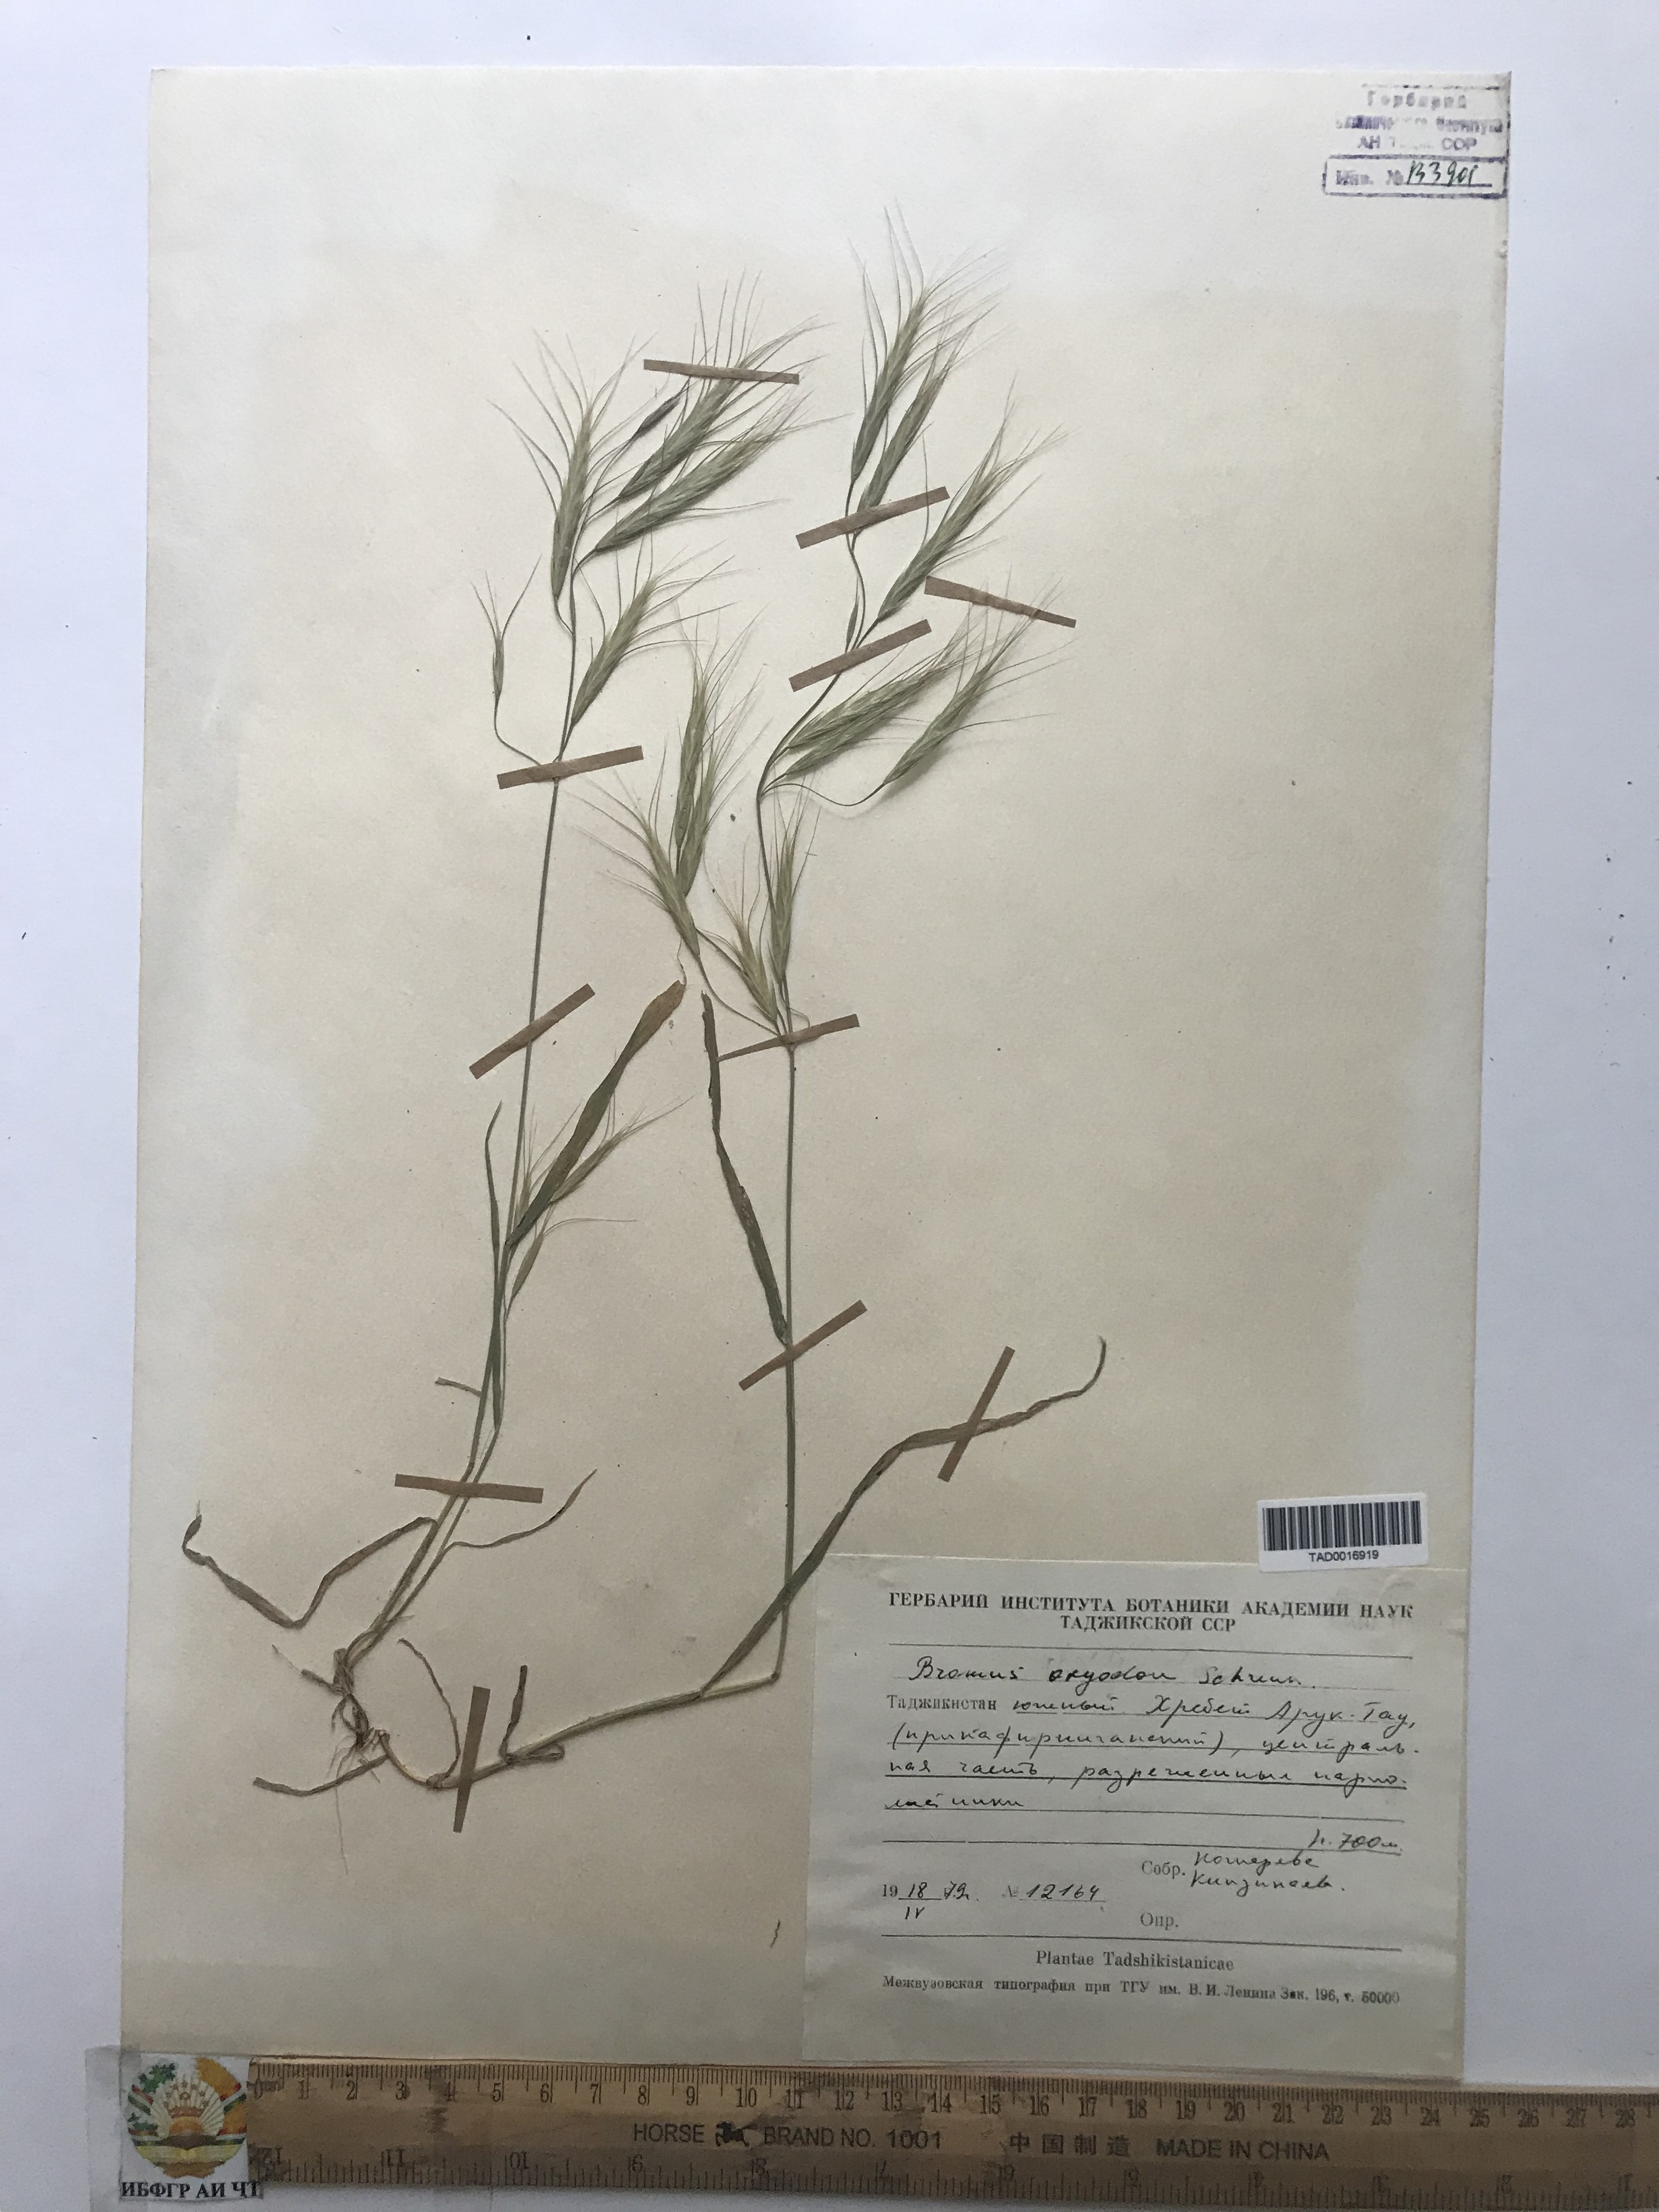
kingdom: Plantae
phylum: Tracheophyta
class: Liliopsida
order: Poales
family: Poaceae
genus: Bromus
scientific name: Bromus oxyodon
